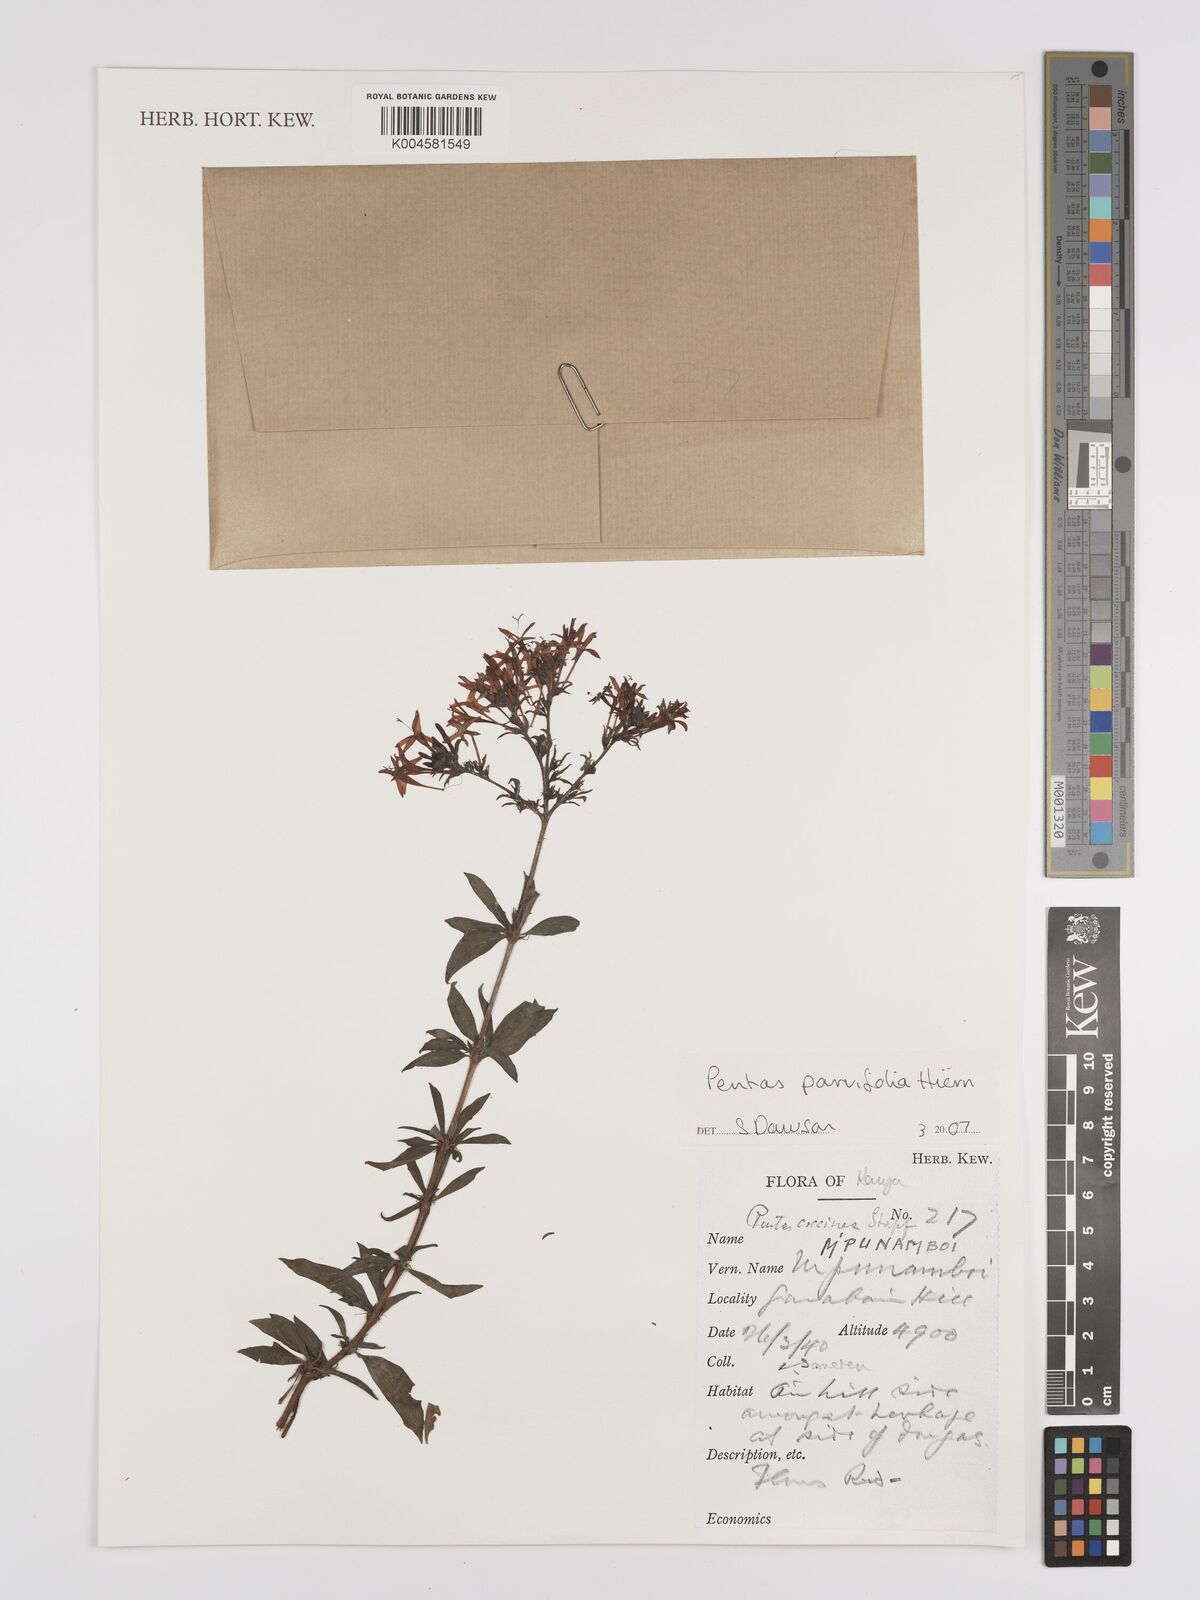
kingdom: Plantae
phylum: Tracheophyta
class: Magnoliopsida
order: Gentianales
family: Rubiaceae
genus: Rhodopentas
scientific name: Rhodopentas parvifolia
